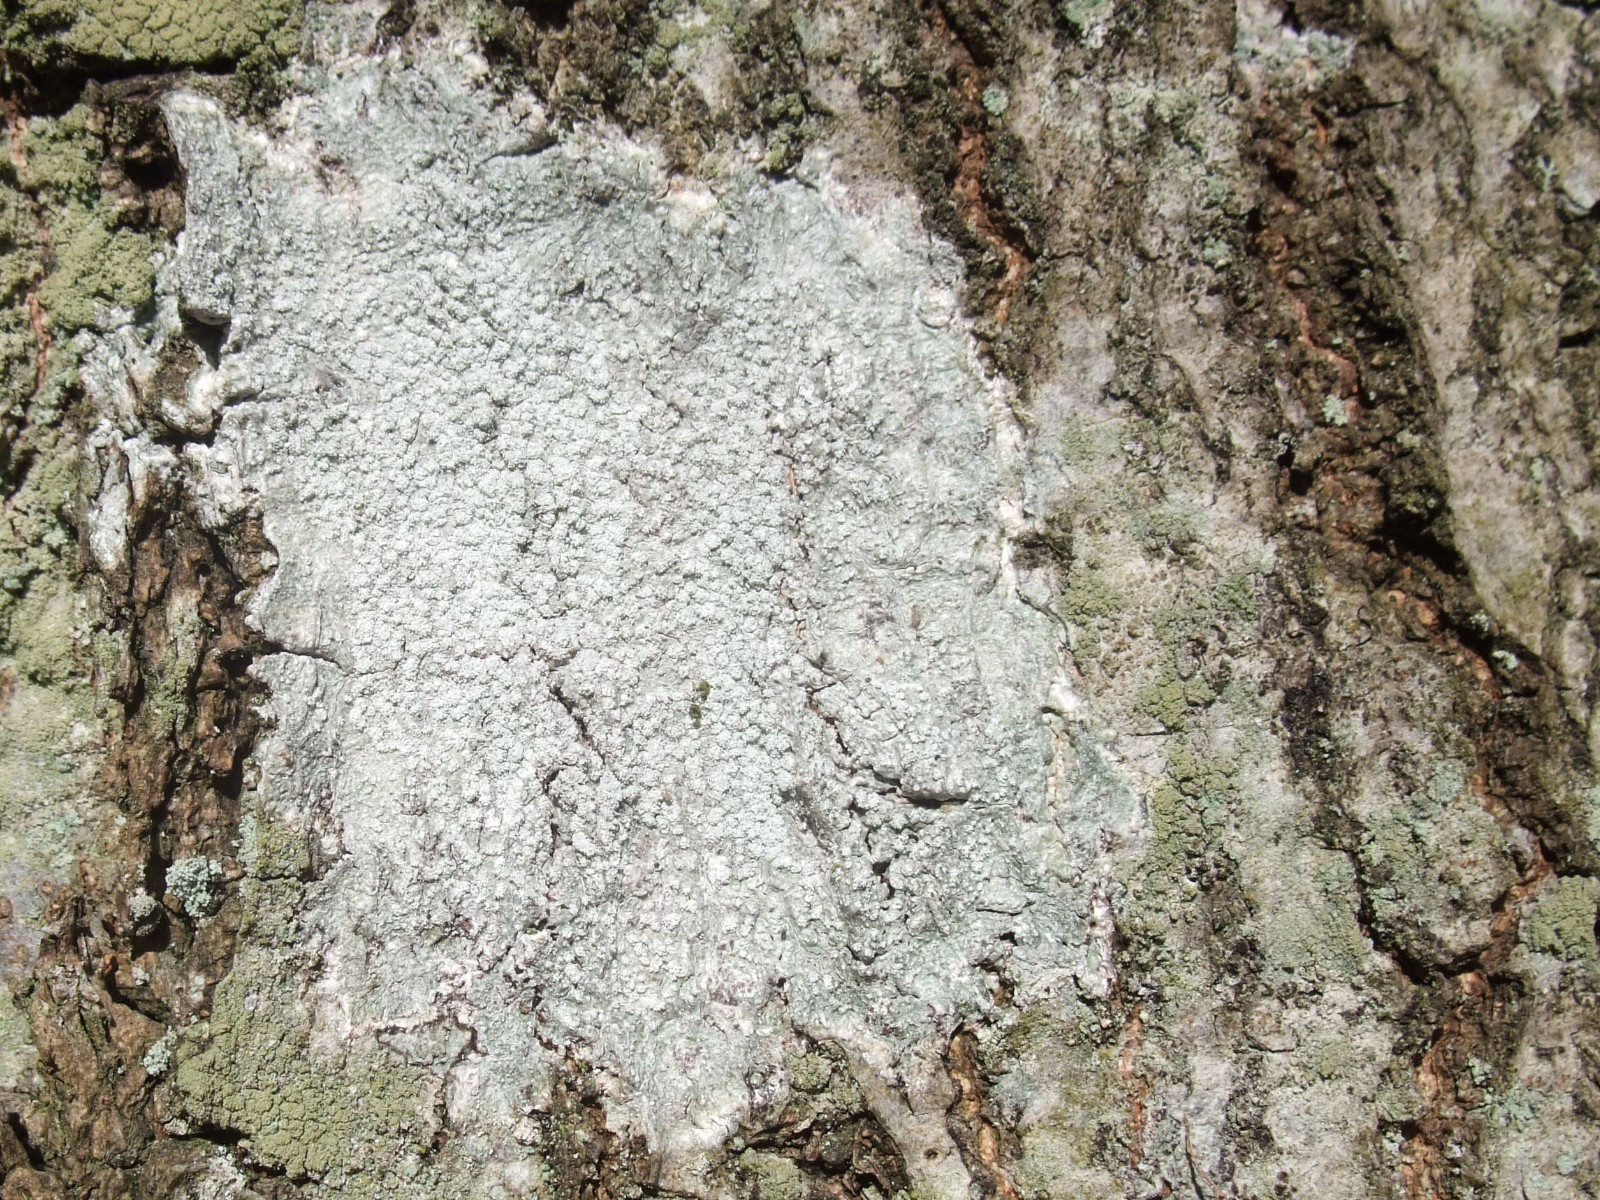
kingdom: Fungi
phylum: Ascomycota
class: Lecanoromycetes
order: Pertusariales
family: Pertusariaceae
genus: Lepra
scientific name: Lepra amara
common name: bitter prikvortelav
